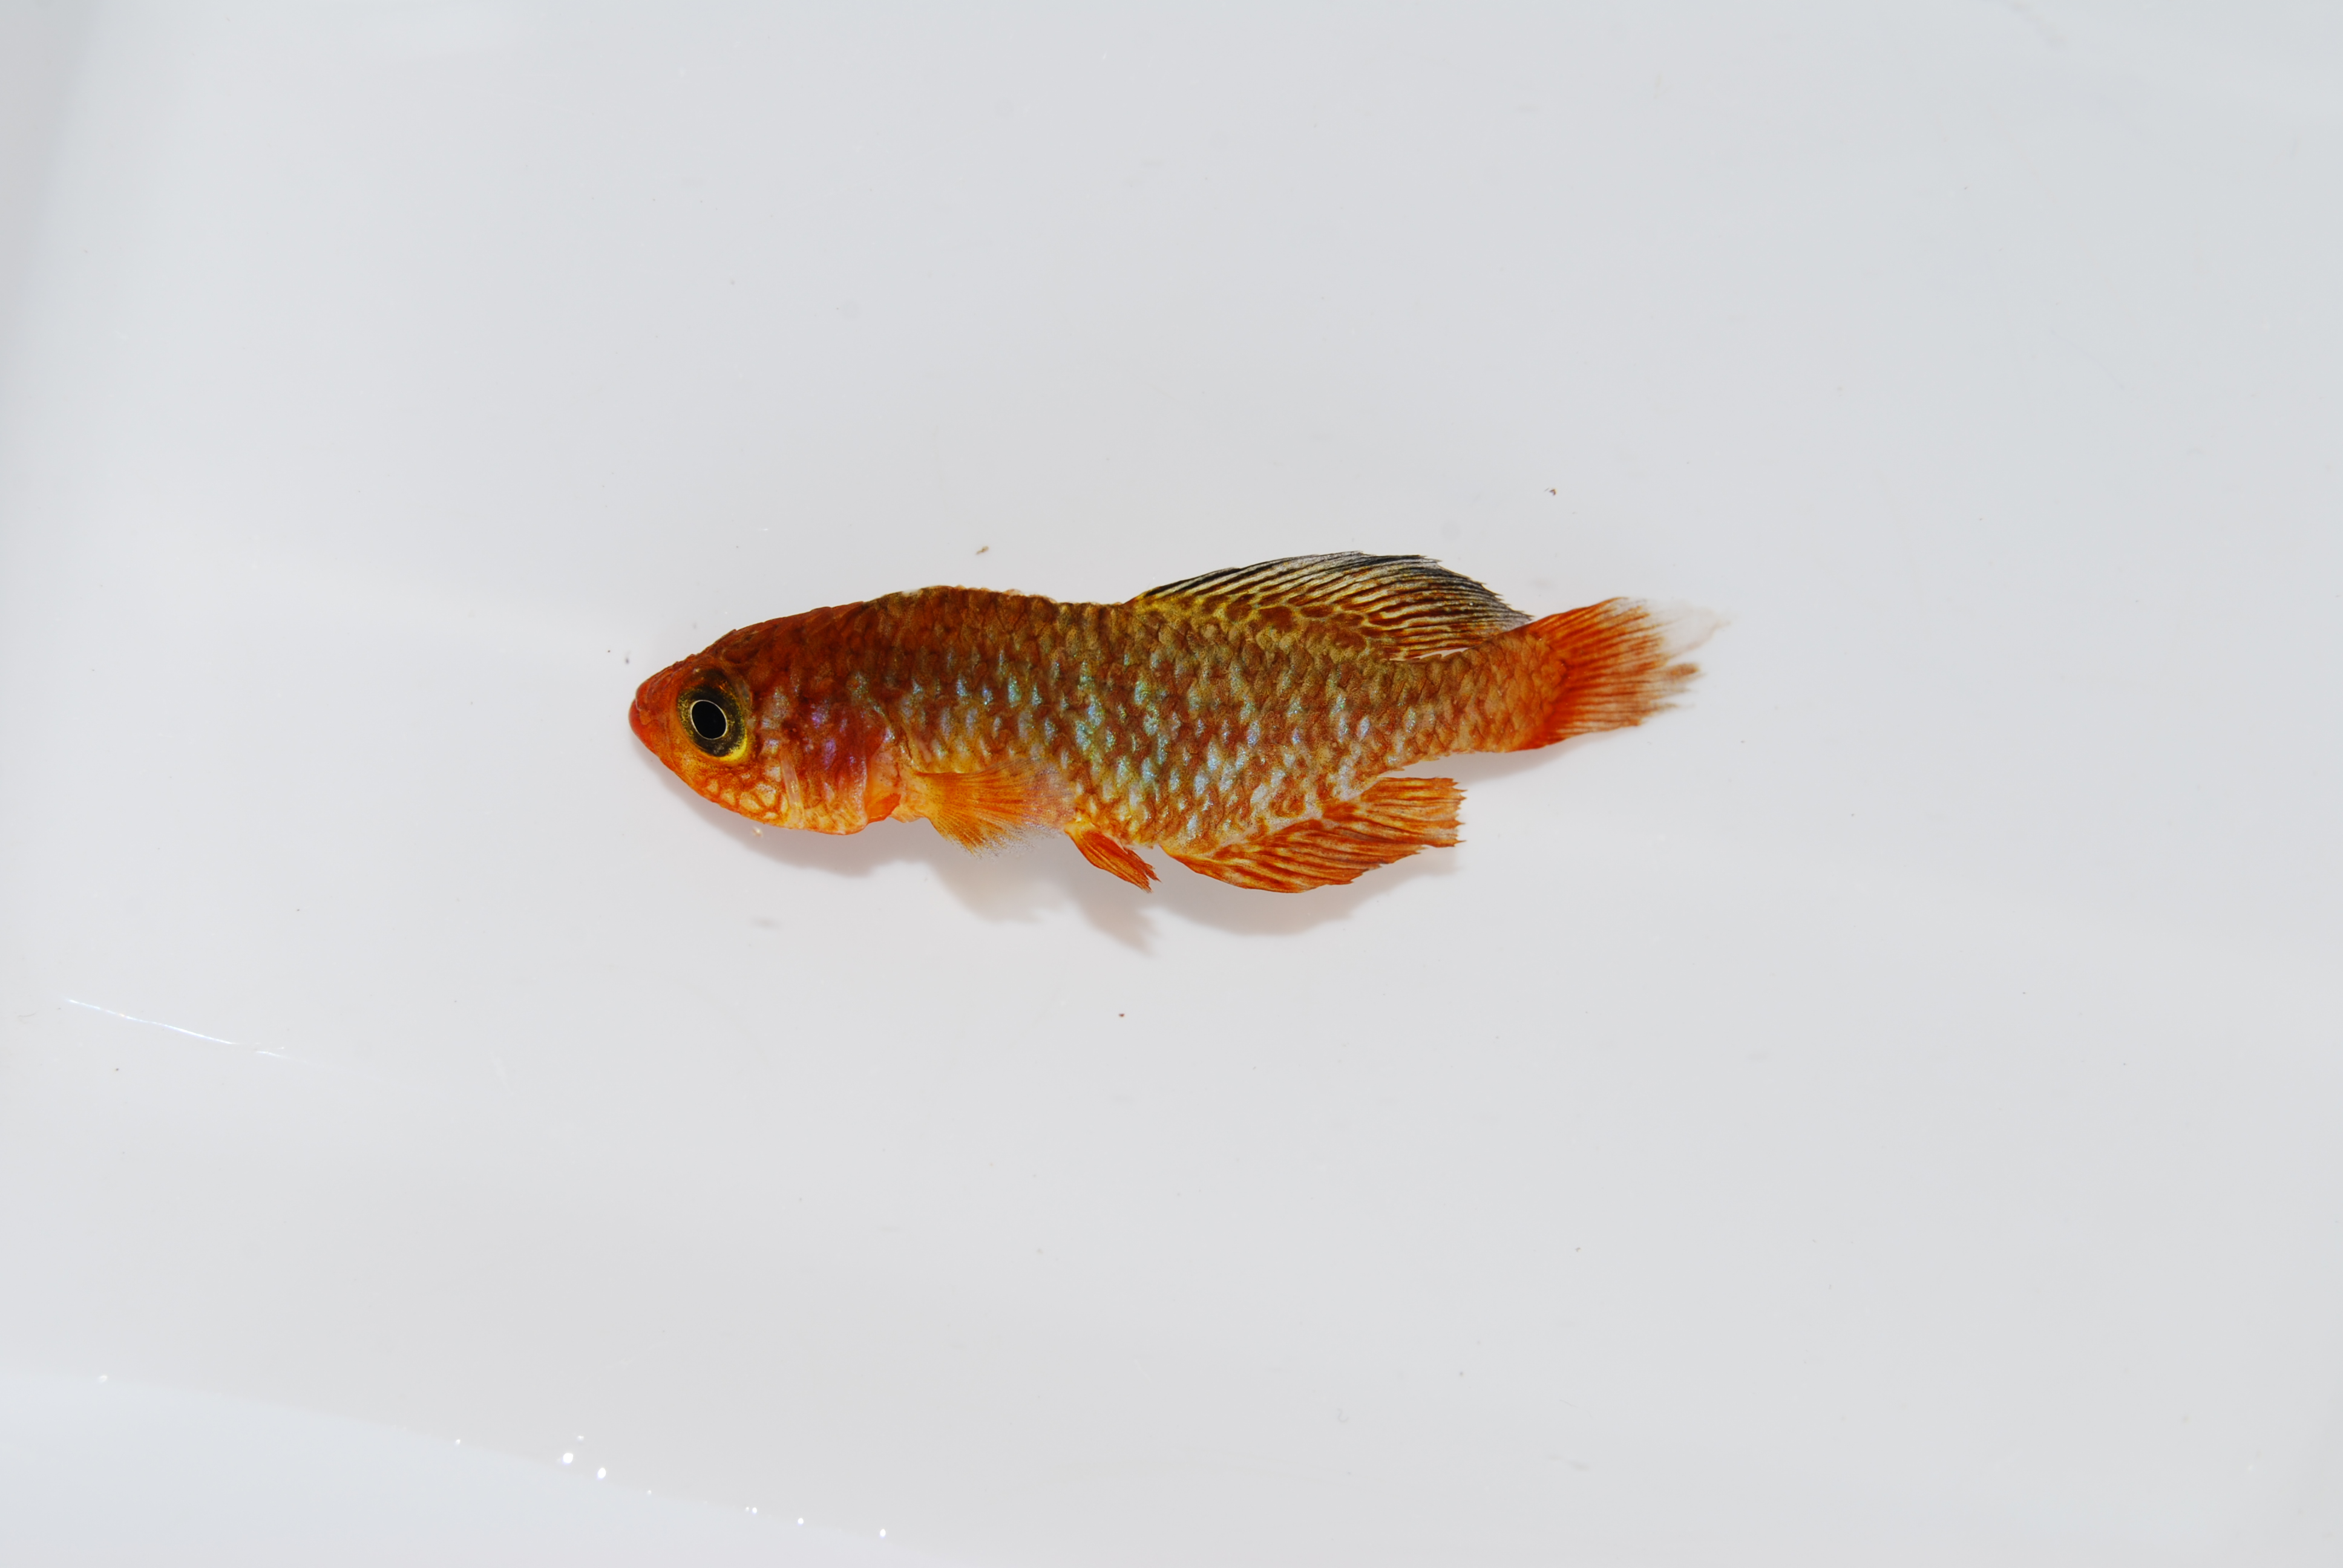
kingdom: Animalia
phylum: Chordata
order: Cyprinodontiformes
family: Nothobranchiidae
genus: Nothobranchius
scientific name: Nothobranchius rosenstocki
